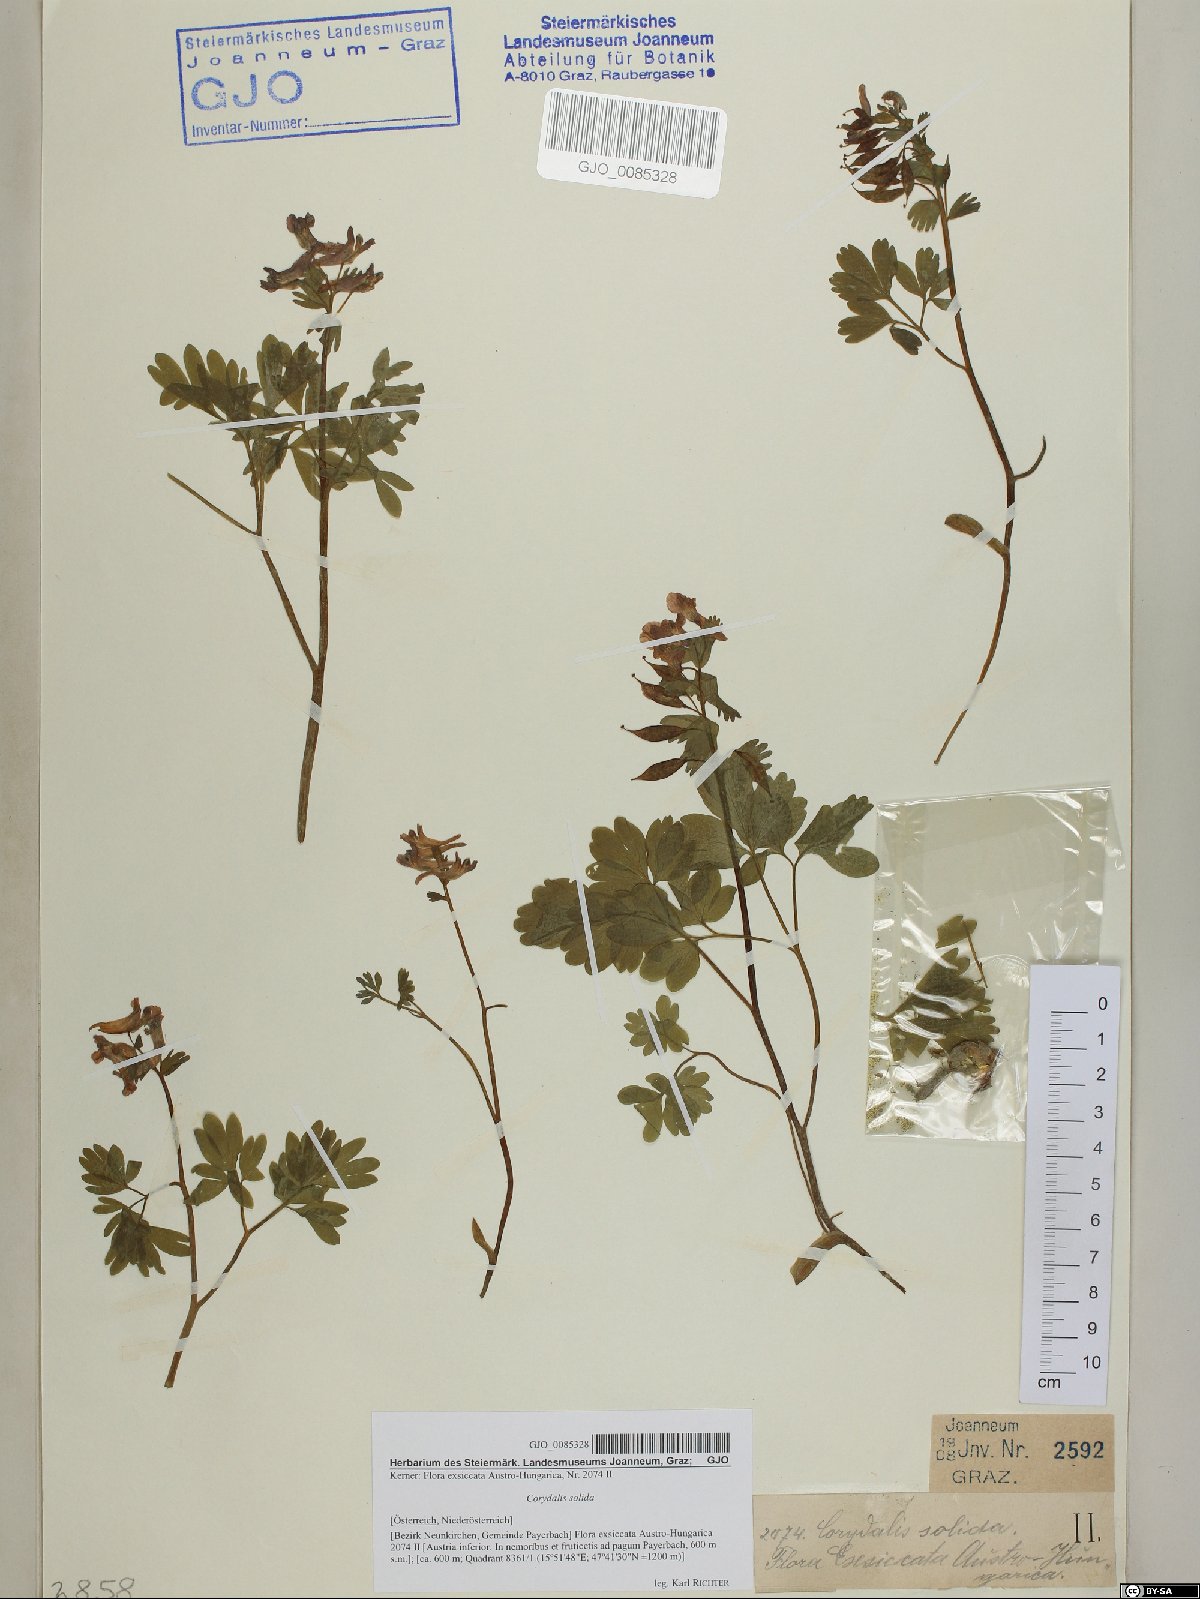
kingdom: Plantae
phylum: Tracheophyta
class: Magnoliopsida
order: Ranunculales
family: Papaveraceae
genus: Corydalis
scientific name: Corydalis solida
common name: Bird-in-a-bush
